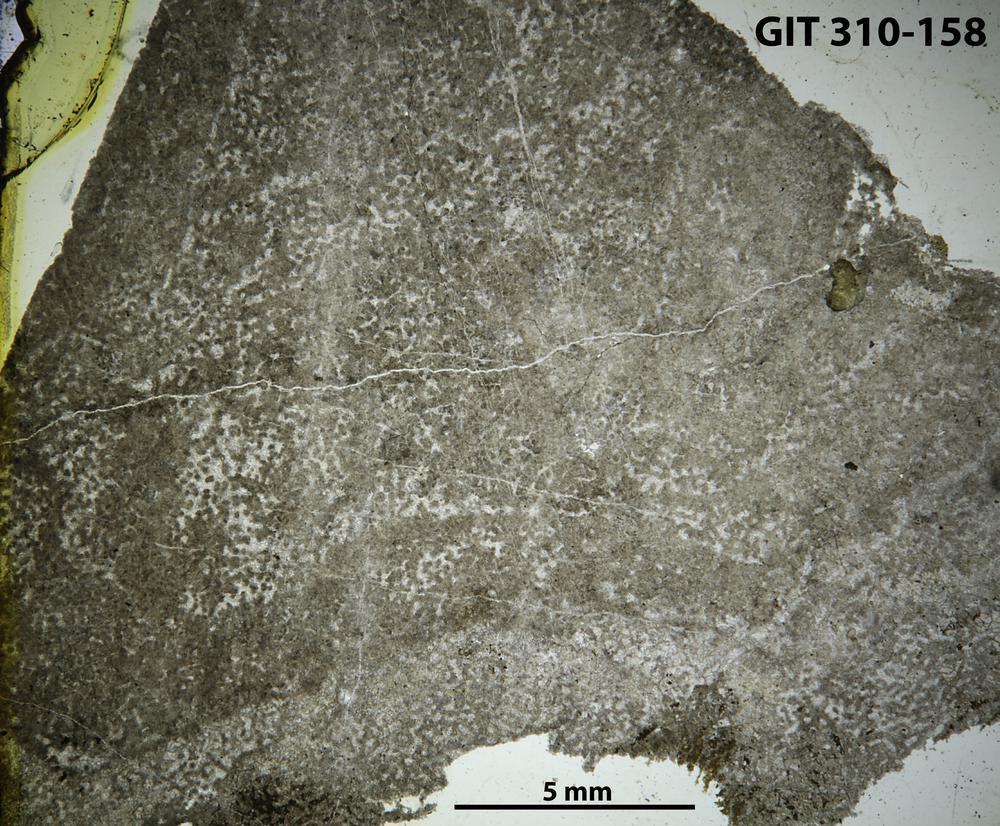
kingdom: Animalia
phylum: Porifera
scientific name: Porifera
